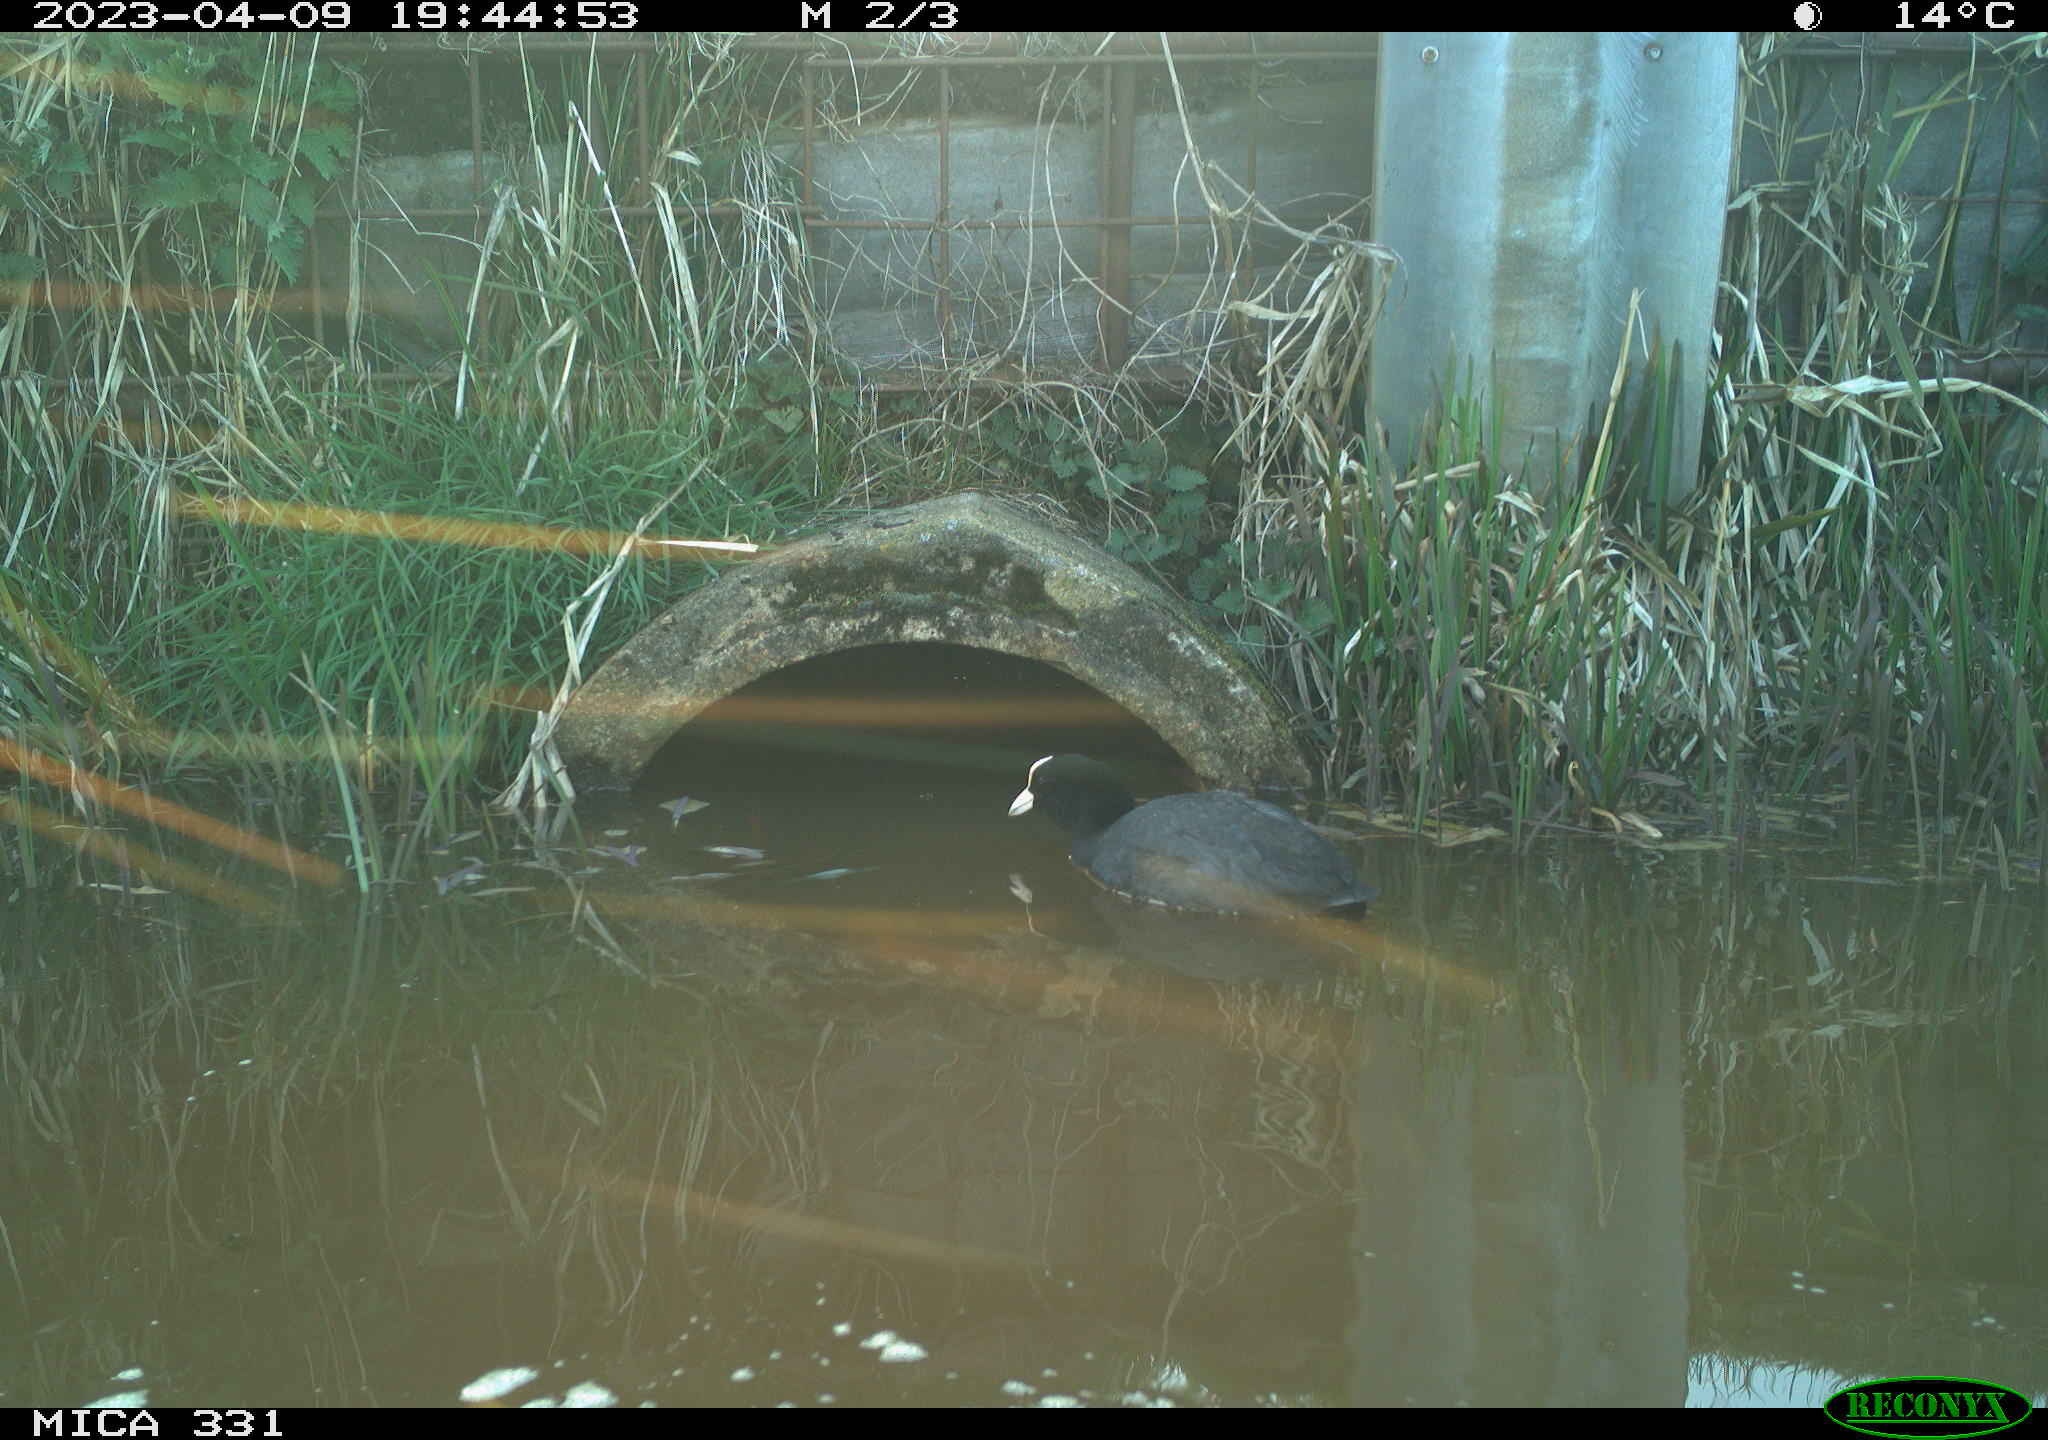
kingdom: Animalia
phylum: Chordata
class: Aves
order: Gruiformes
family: Rallidae
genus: Fulica
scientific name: Fulica atra
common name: Eurasian coot
